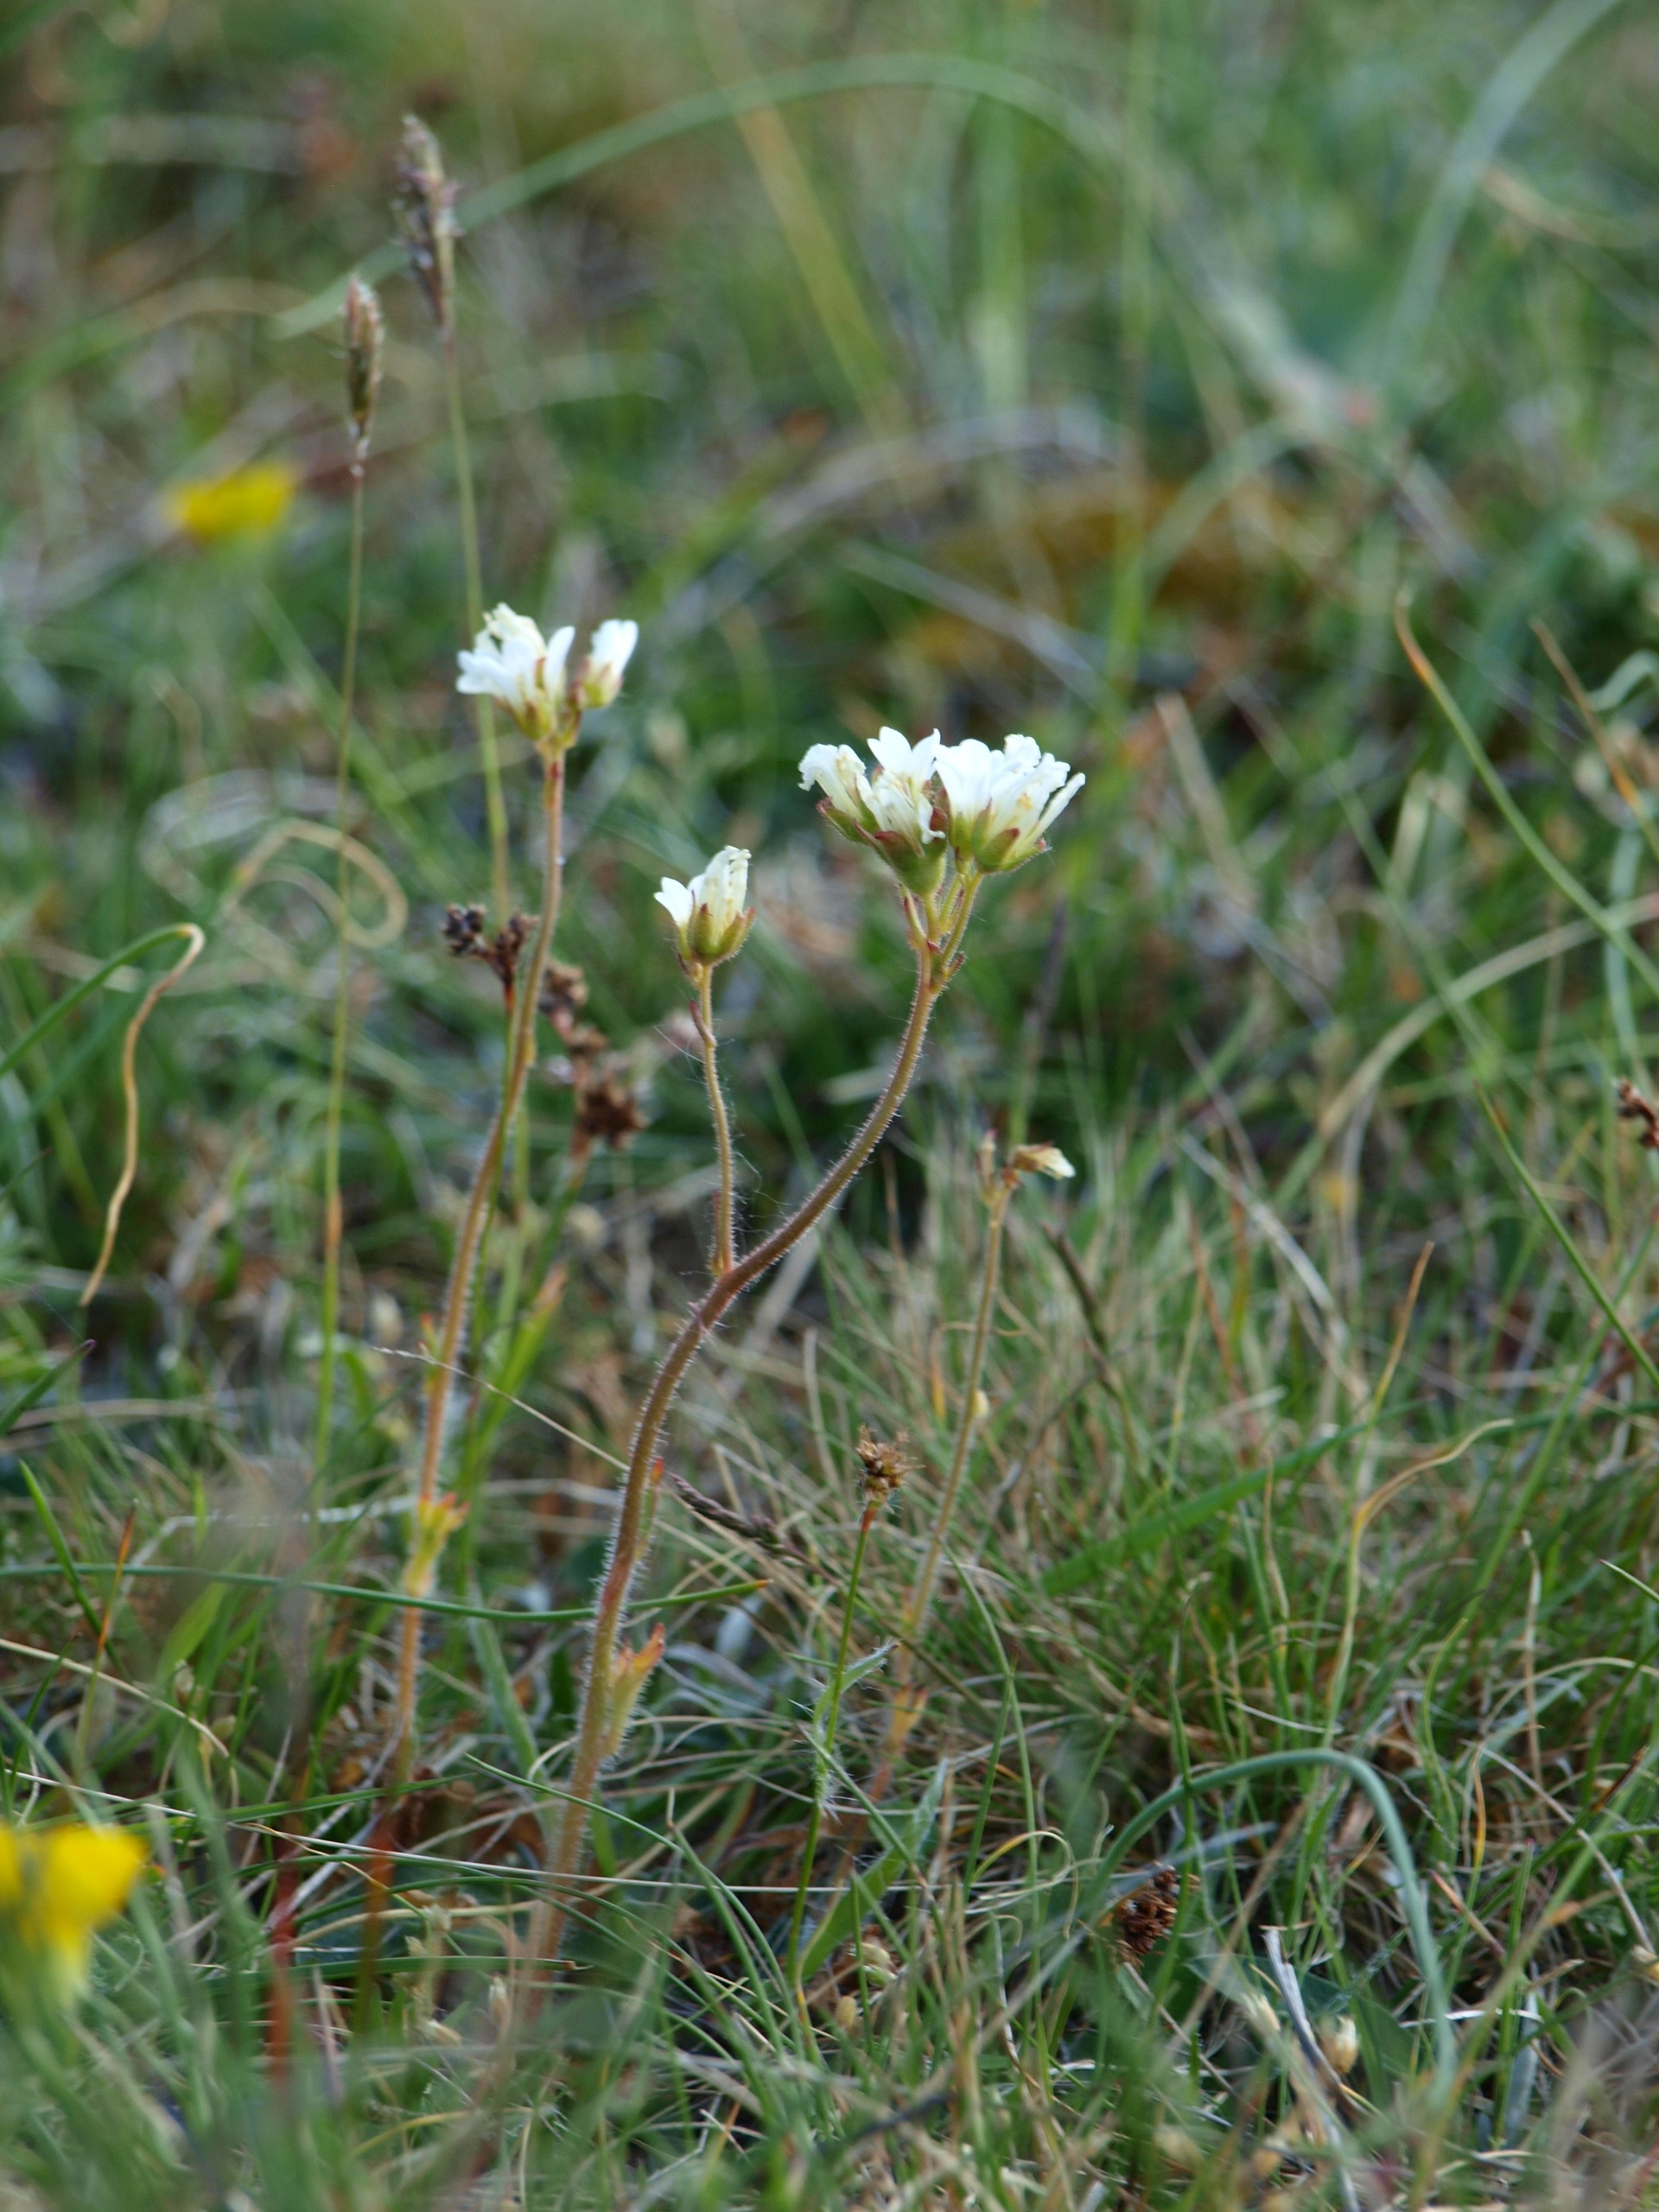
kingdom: Plantae
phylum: Tracheophyta
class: Magnoliopsida
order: Saxifragales
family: Saxifragaceae
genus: Saxifraga
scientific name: Saxifraga granulata
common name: Kornet stenbræk
